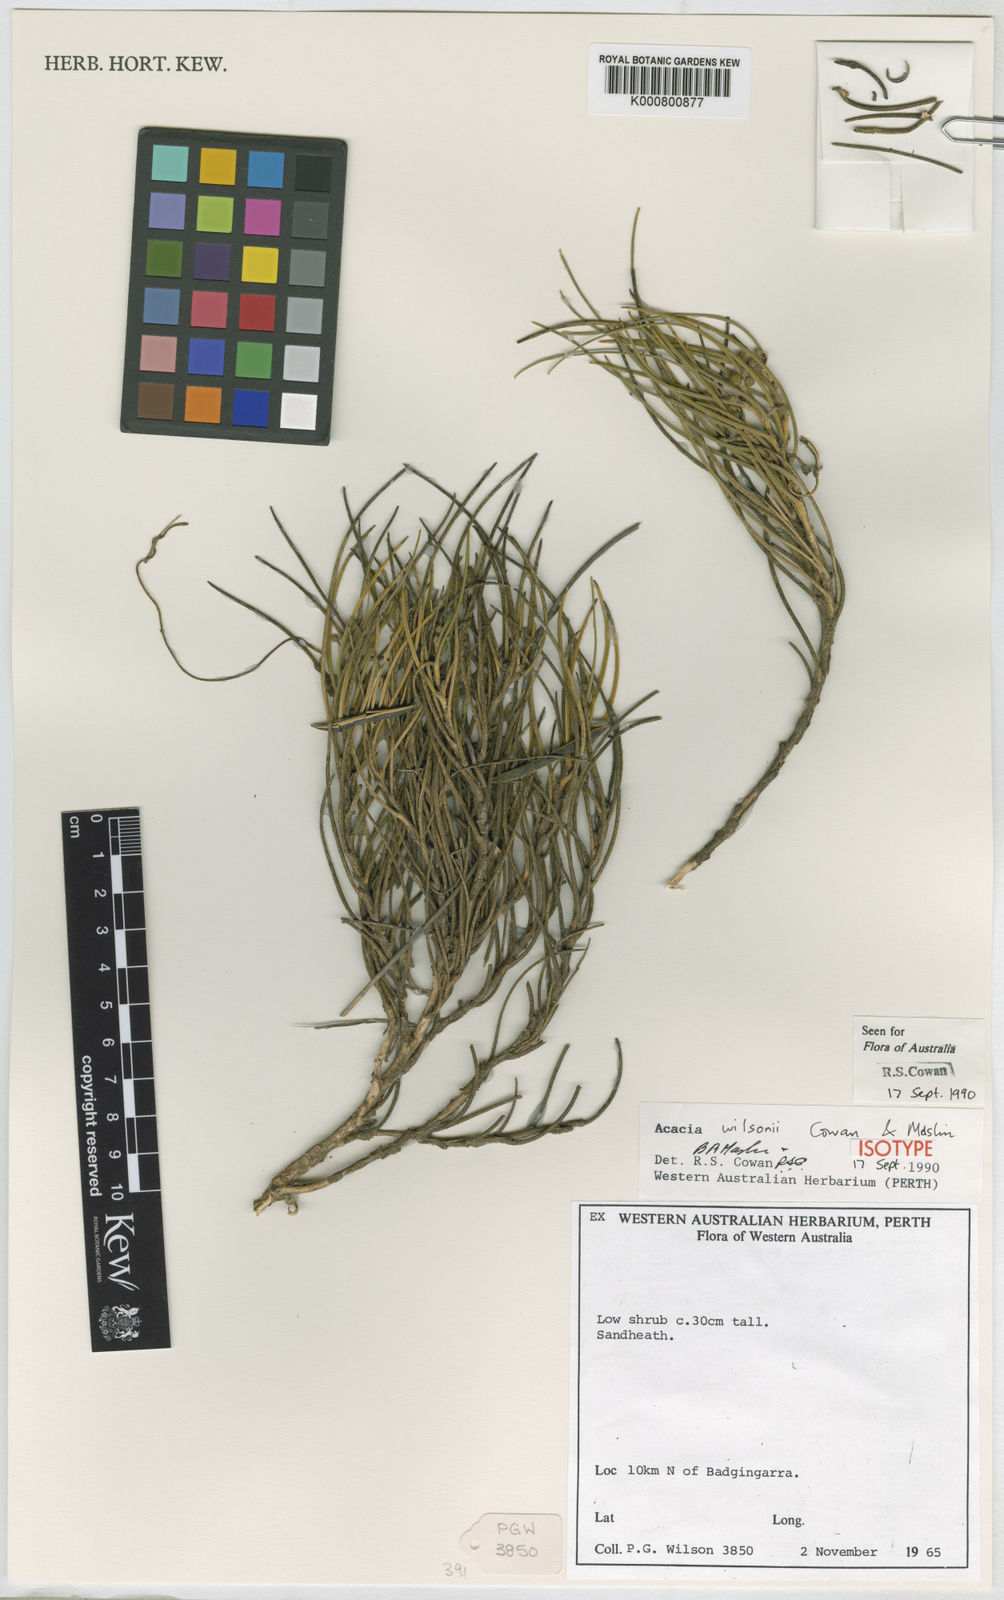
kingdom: Plantae
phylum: Tracheophyta
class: Magnoliopsida
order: Fabales
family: Fabaceae
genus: Acacia
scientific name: Acacia wilsonii
